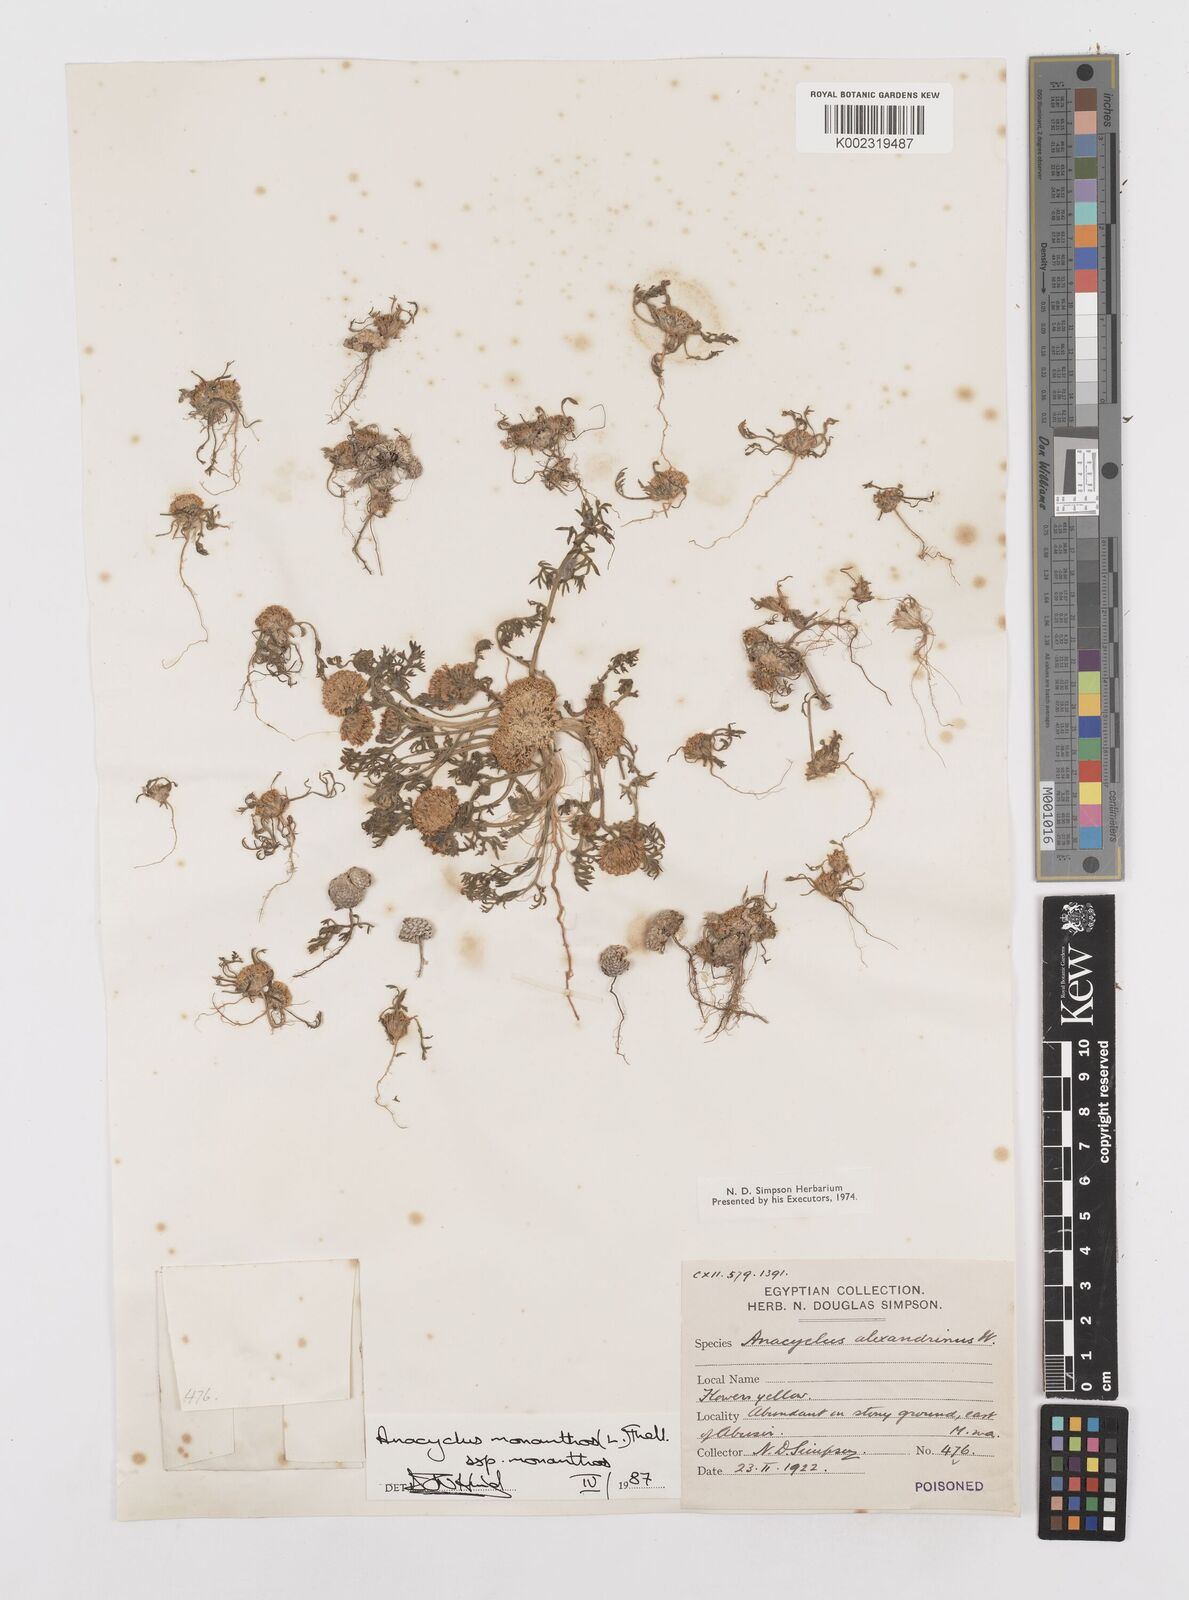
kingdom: Plantae
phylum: Tracheophyta
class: Magnoliopsida
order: Asterales
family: Asteraceae
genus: Anacyclus
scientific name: Anacyclus monanthos
